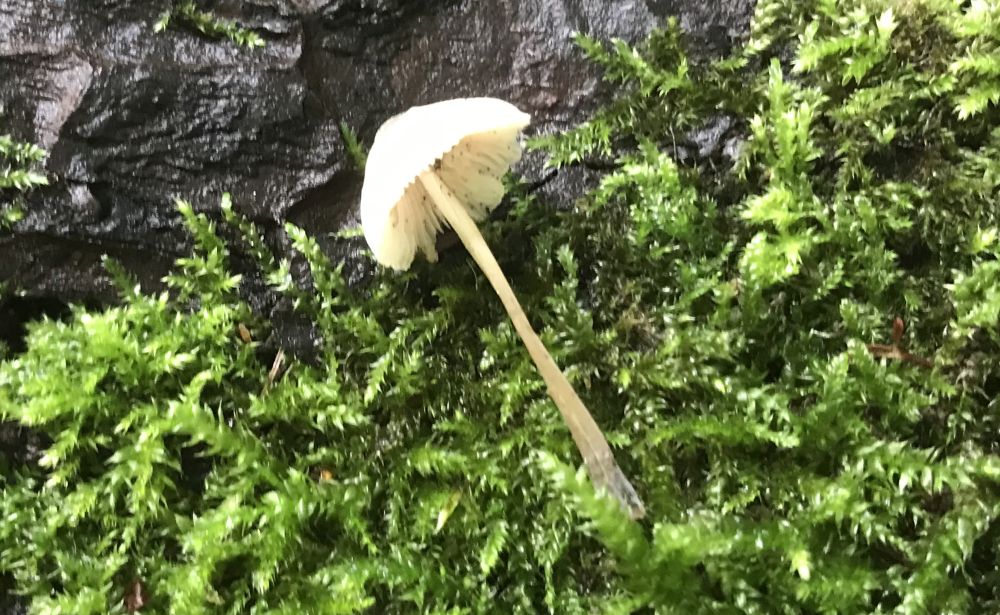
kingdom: Fungi
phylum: Basidiomycota
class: Agaricomycetes
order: Agaricales
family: Mycenaceae
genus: Mycena
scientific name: Mycena
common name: huesvamp
